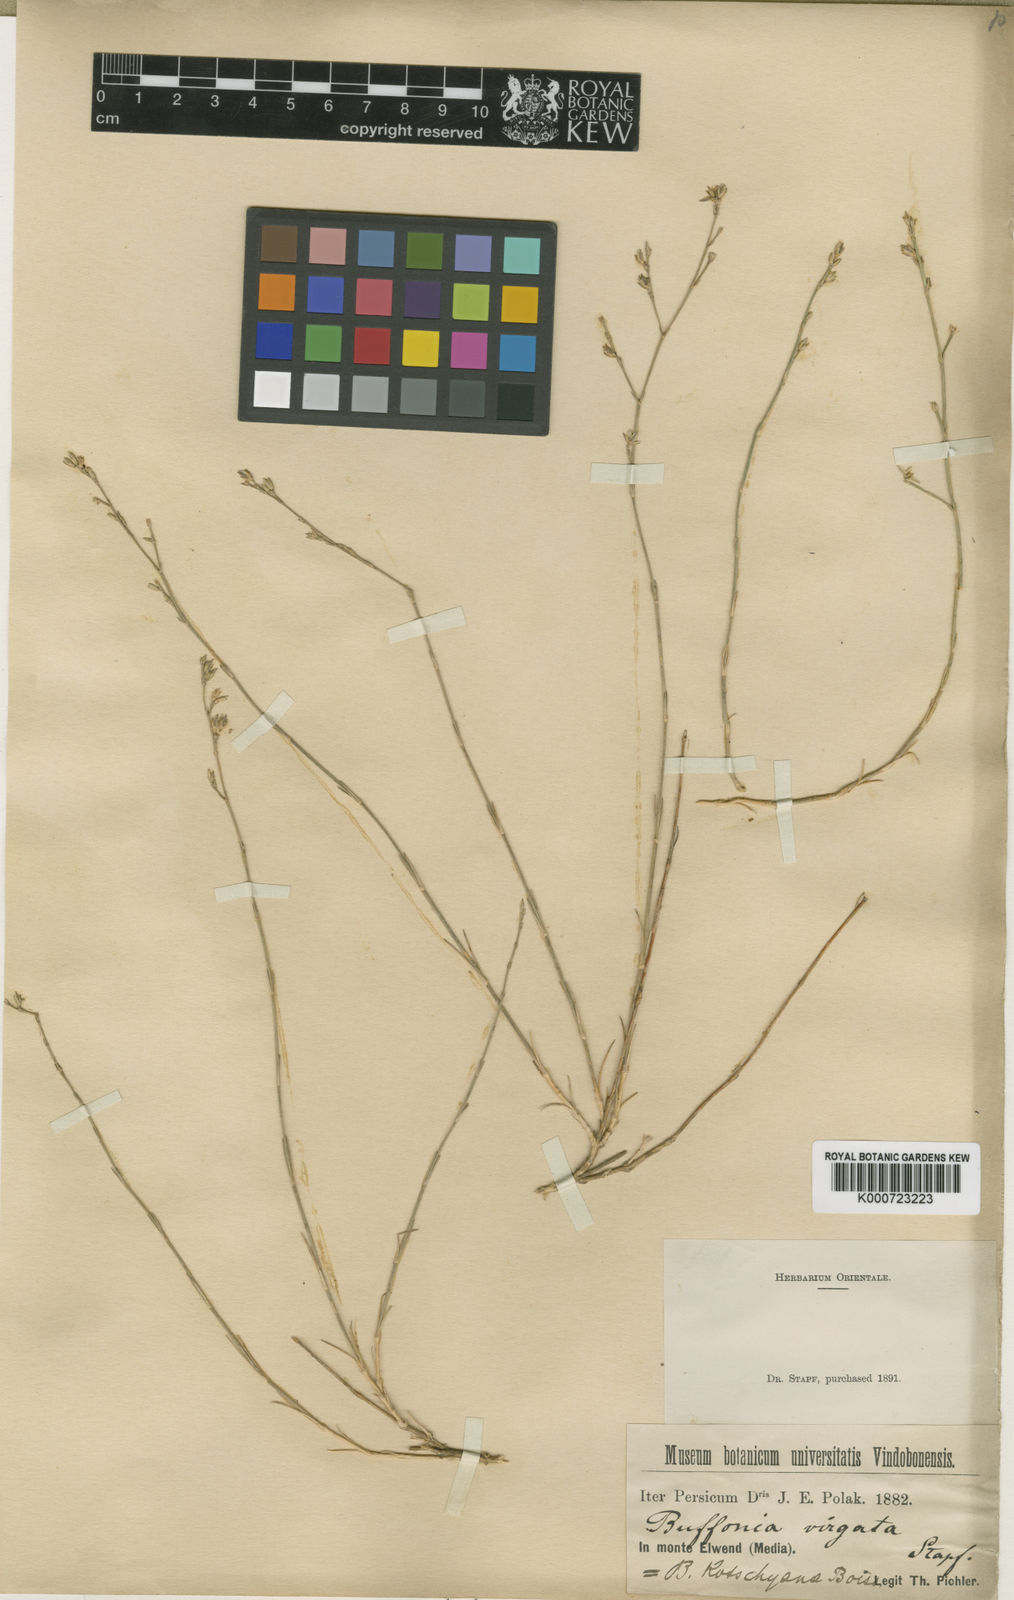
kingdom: Plantae
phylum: Tracheophyta
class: Magnoliopsida
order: Caryophyllales
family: Caryophyllaceae
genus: Bufonia
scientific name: Bufonia stapfii
